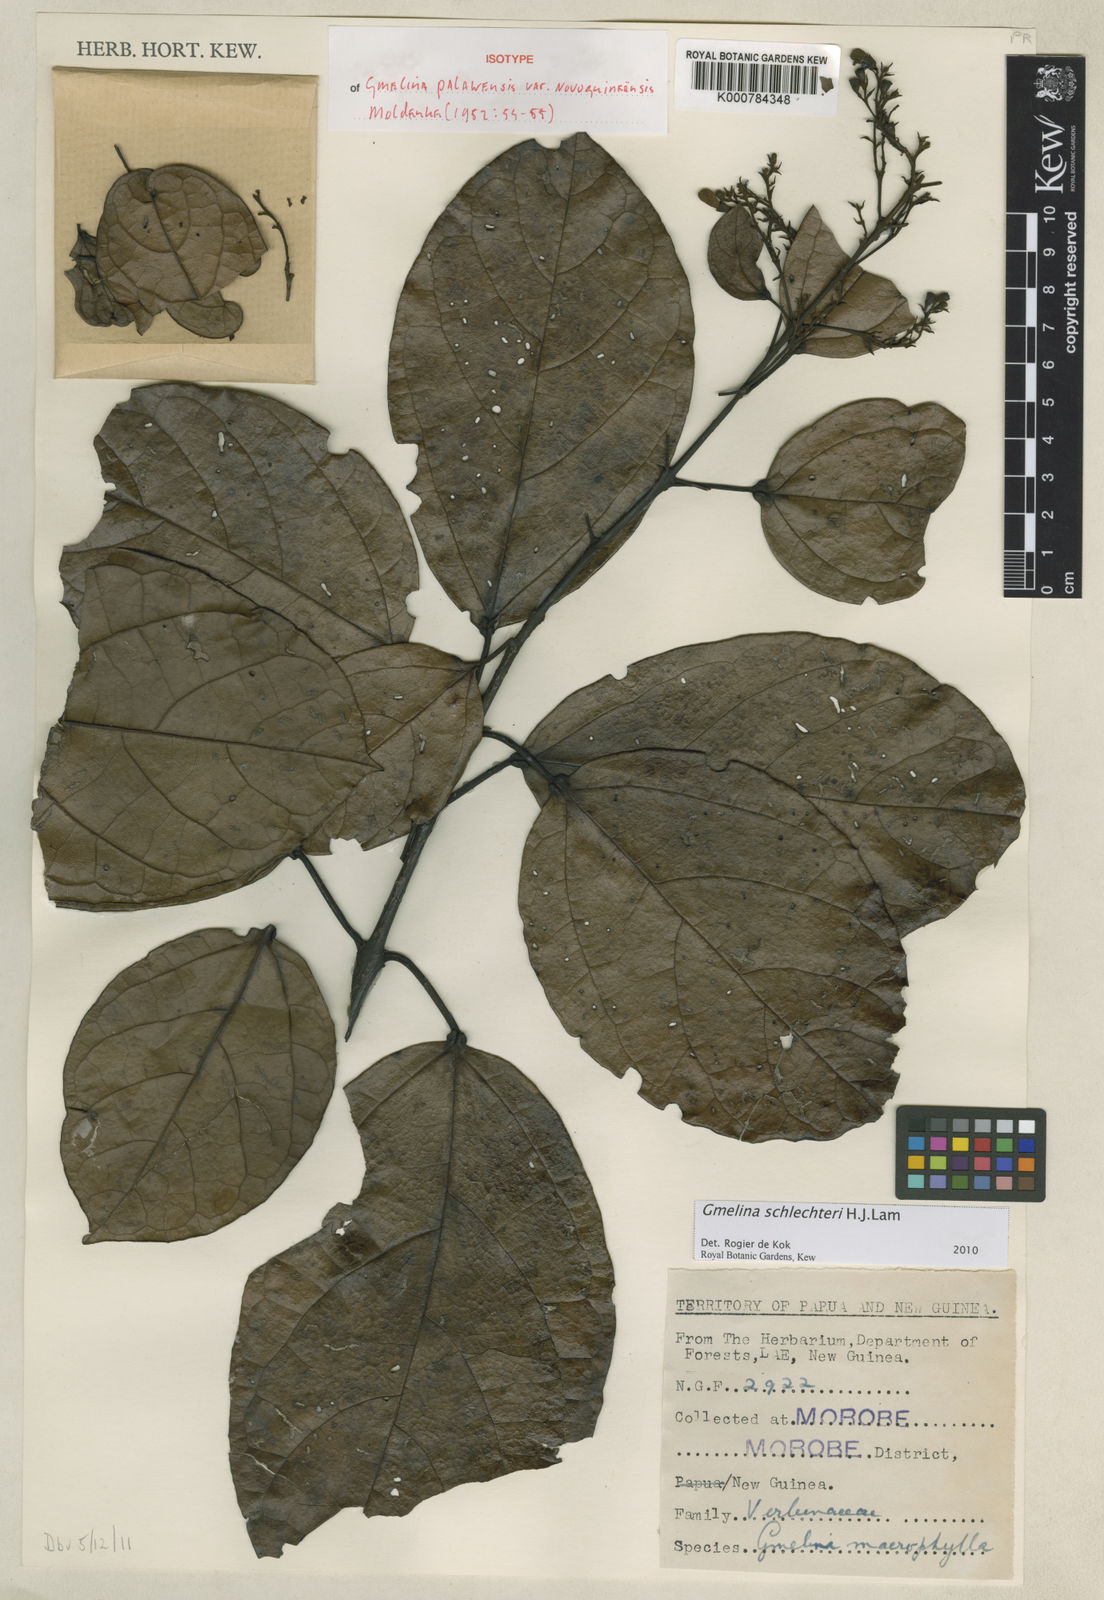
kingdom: Plantae
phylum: Tracheophyta
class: Magnoliopsida
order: Lamiales
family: Lamiaceae
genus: Gmelina
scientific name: Gmelina schlechteri
